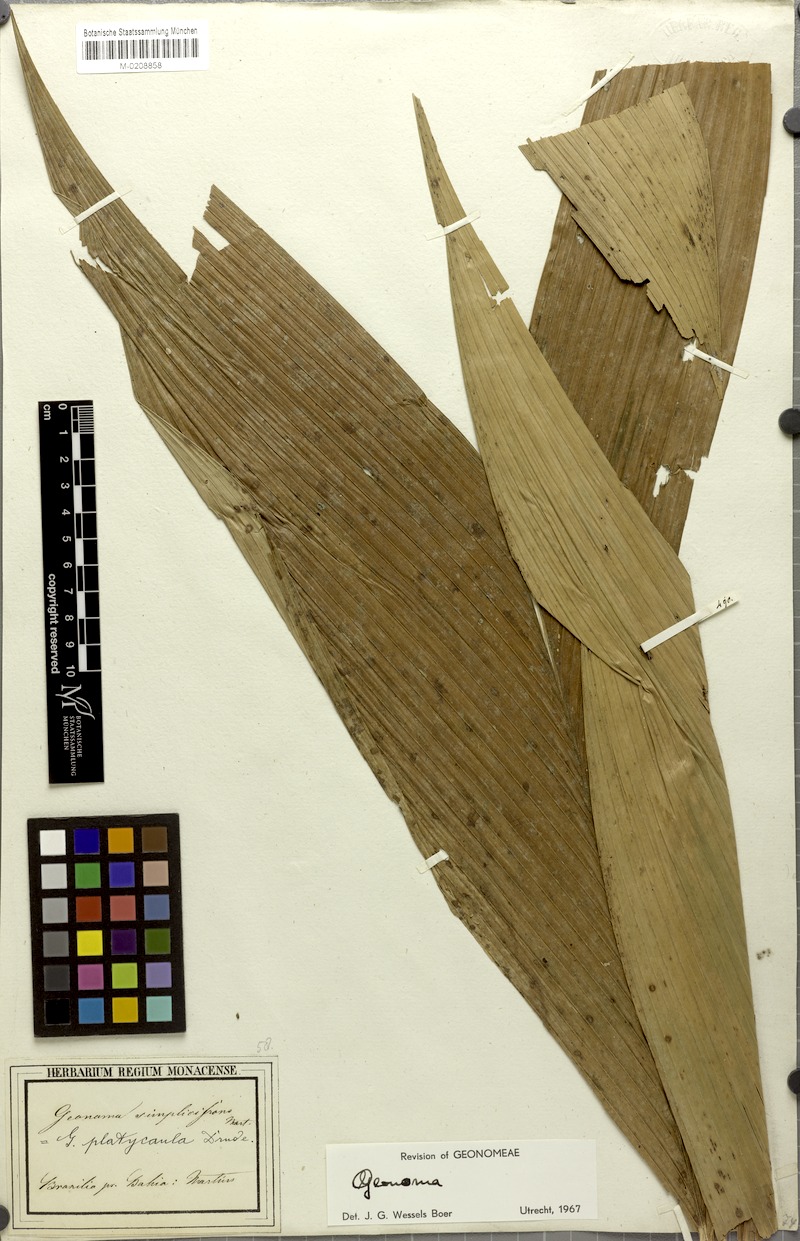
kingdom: Plantae
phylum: Tracheophyta
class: Liliopsida
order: Arecales
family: Arecaceae
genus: Geonoma
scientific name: Geonoma pohliana
